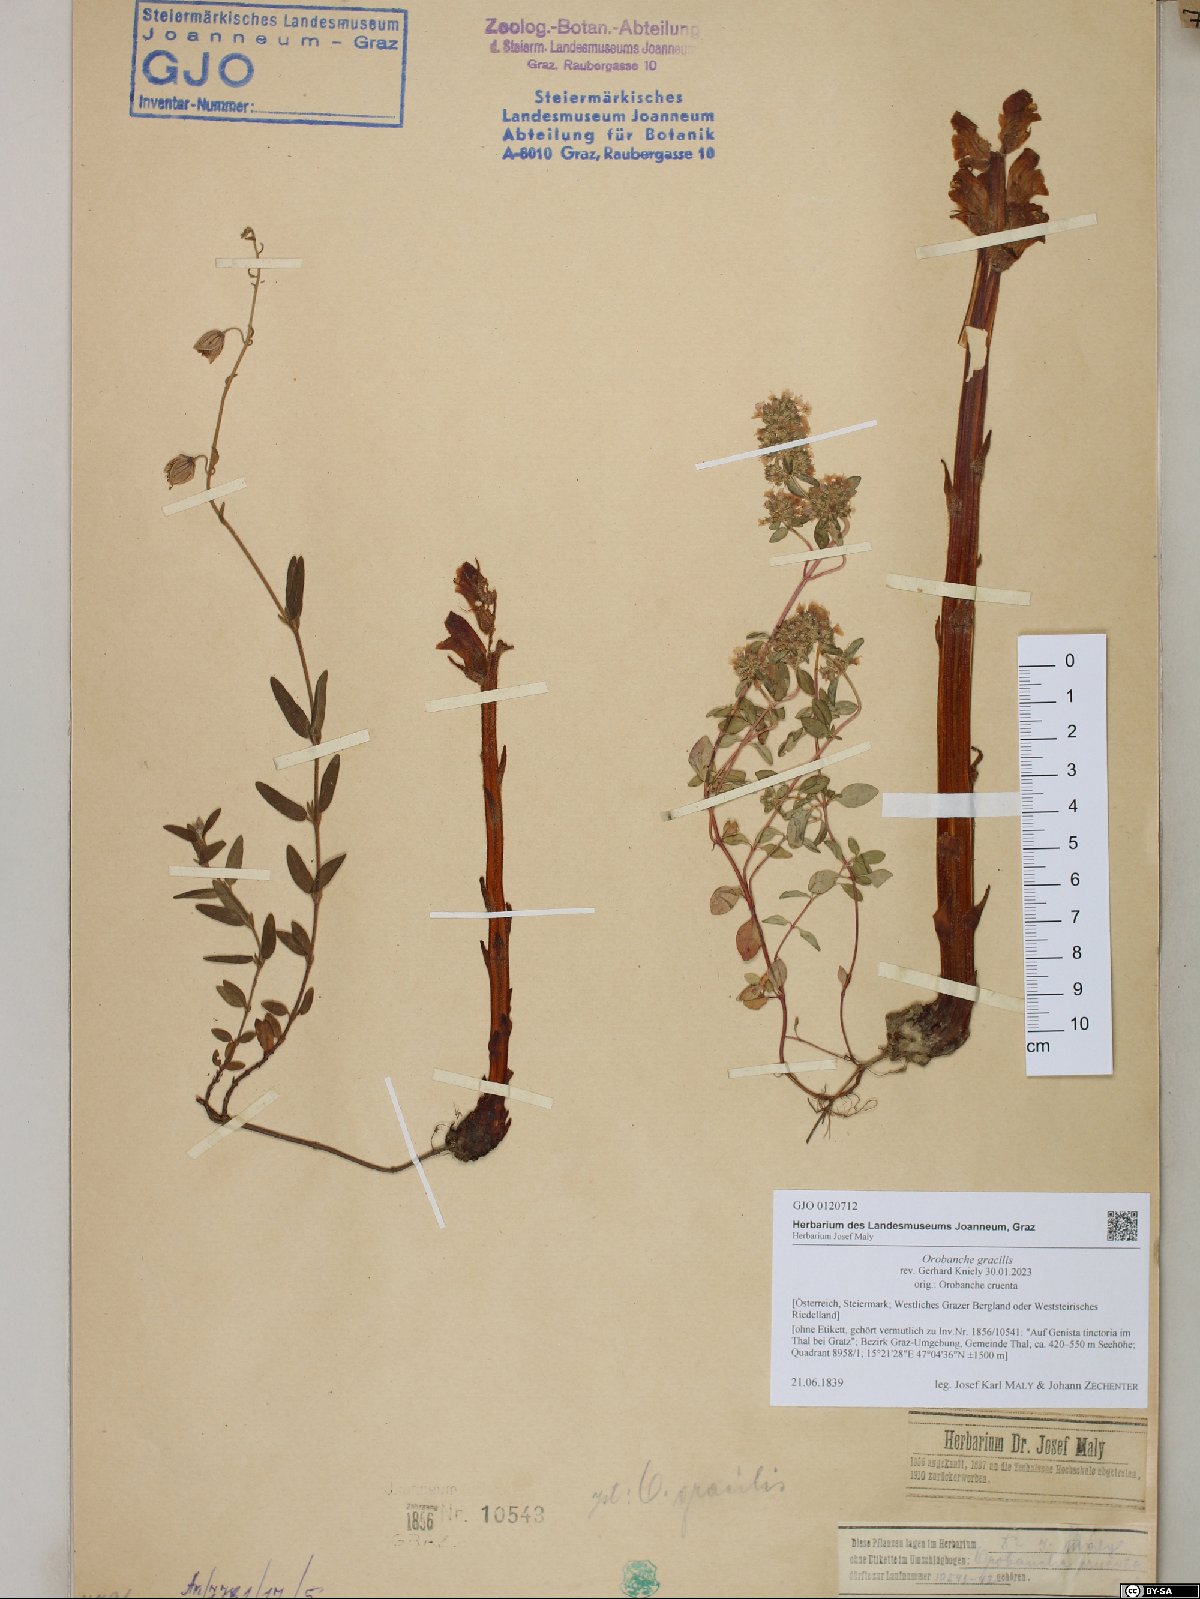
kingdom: Plantae
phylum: Tracheophyta
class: Magnoliopsida
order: Lamiales
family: Orobanchaceae
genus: Orobanche
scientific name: Orobanche gracilis
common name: Slender broomrape
